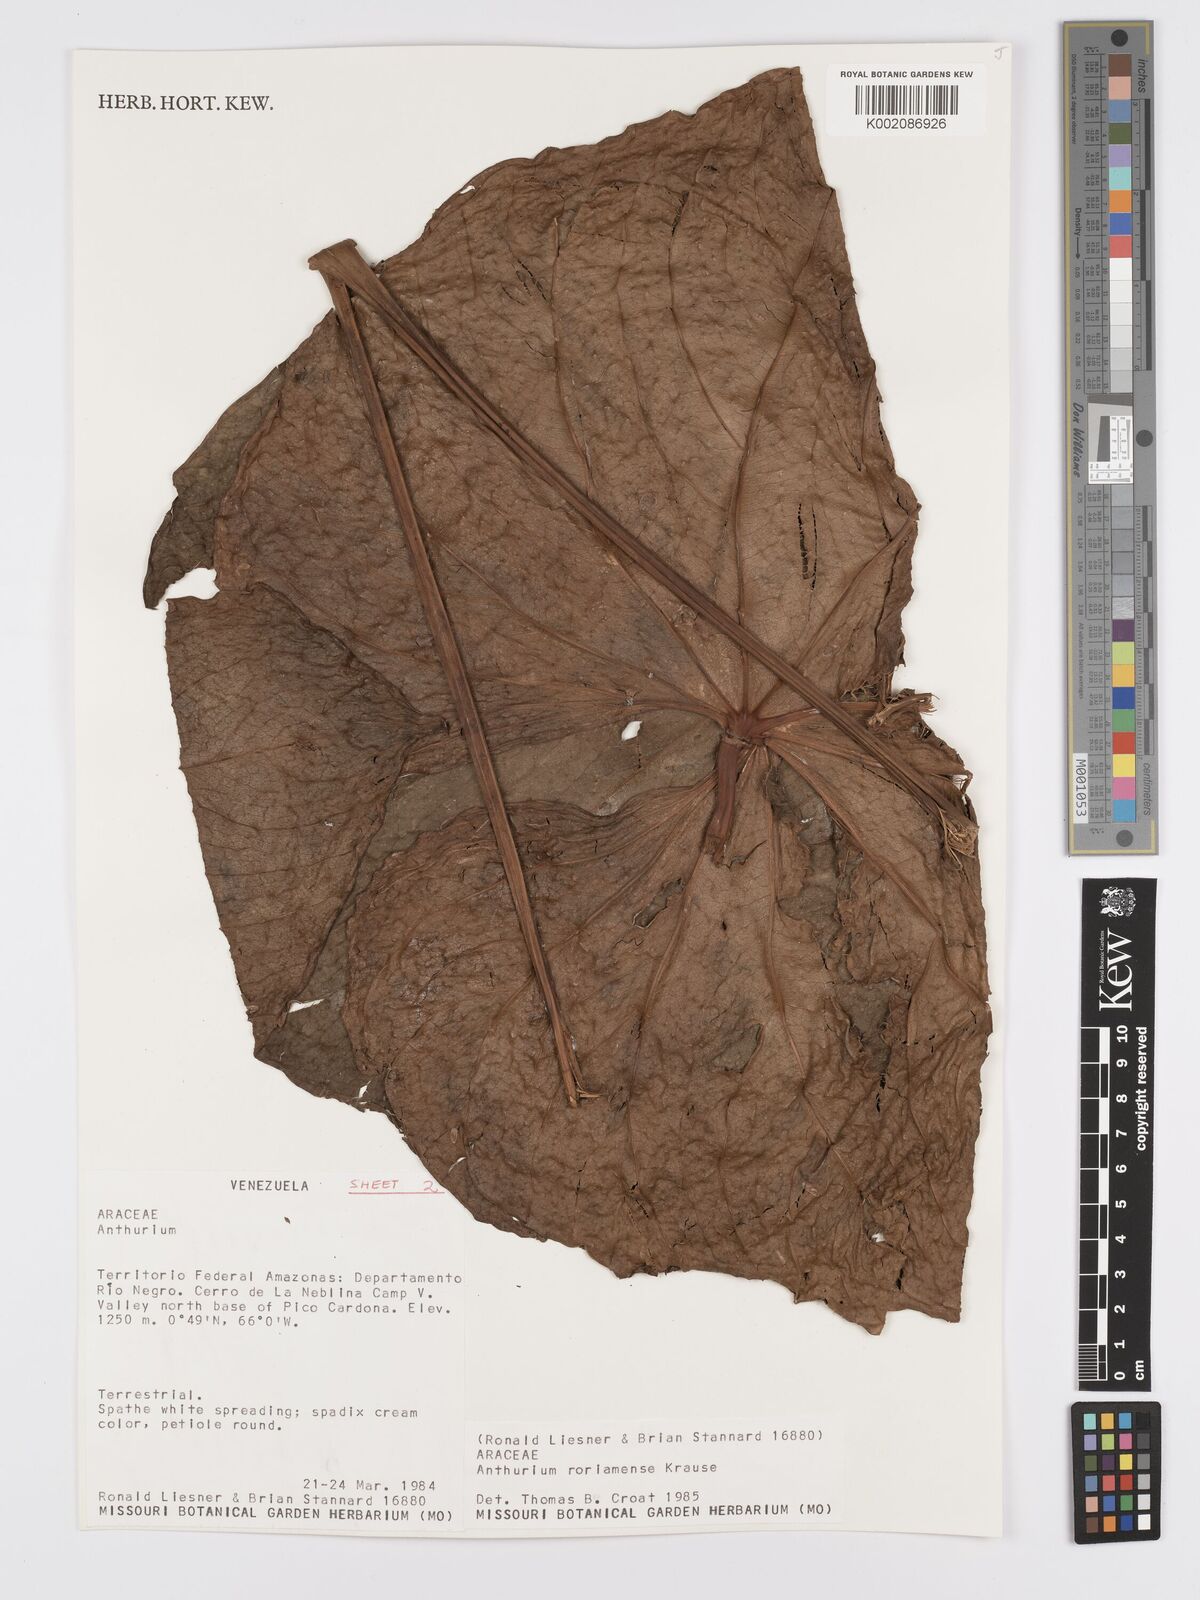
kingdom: Plantae
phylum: Tracheophyta
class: Liliopsida
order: Alismatales
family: Araceae
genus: Anthurium
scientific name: Anthurium roraimense
